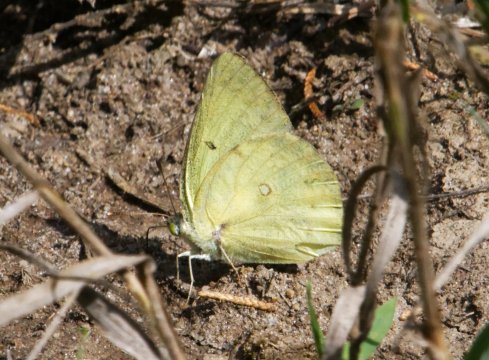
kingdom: Animalia
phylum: Arthropoda
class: Insecta
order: Lepidoptera
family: Pieridae
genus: Colias
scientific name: Colias philodice
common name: Clouded Sulphur
